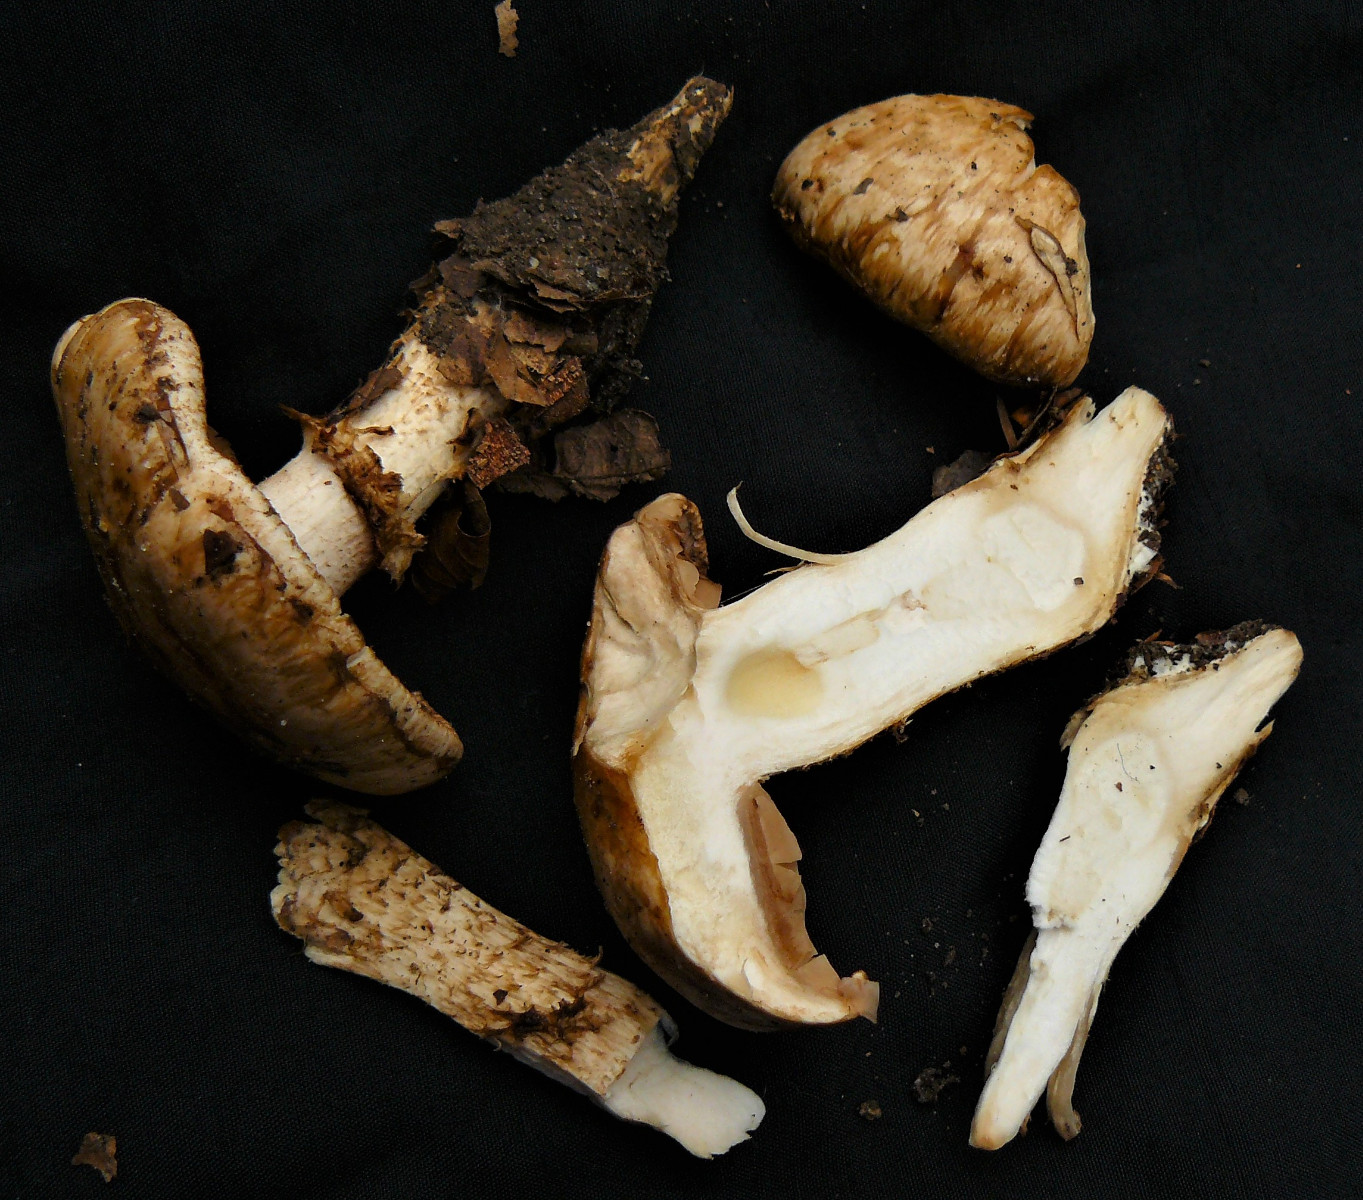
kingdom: Fungi
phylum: Basidiomycota
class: Agaricomycetes
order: Agaricales
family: Hymenogastraceae
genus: Hebeloma
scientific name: Hebeloma radicosum
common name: pælerods-tåreblad
